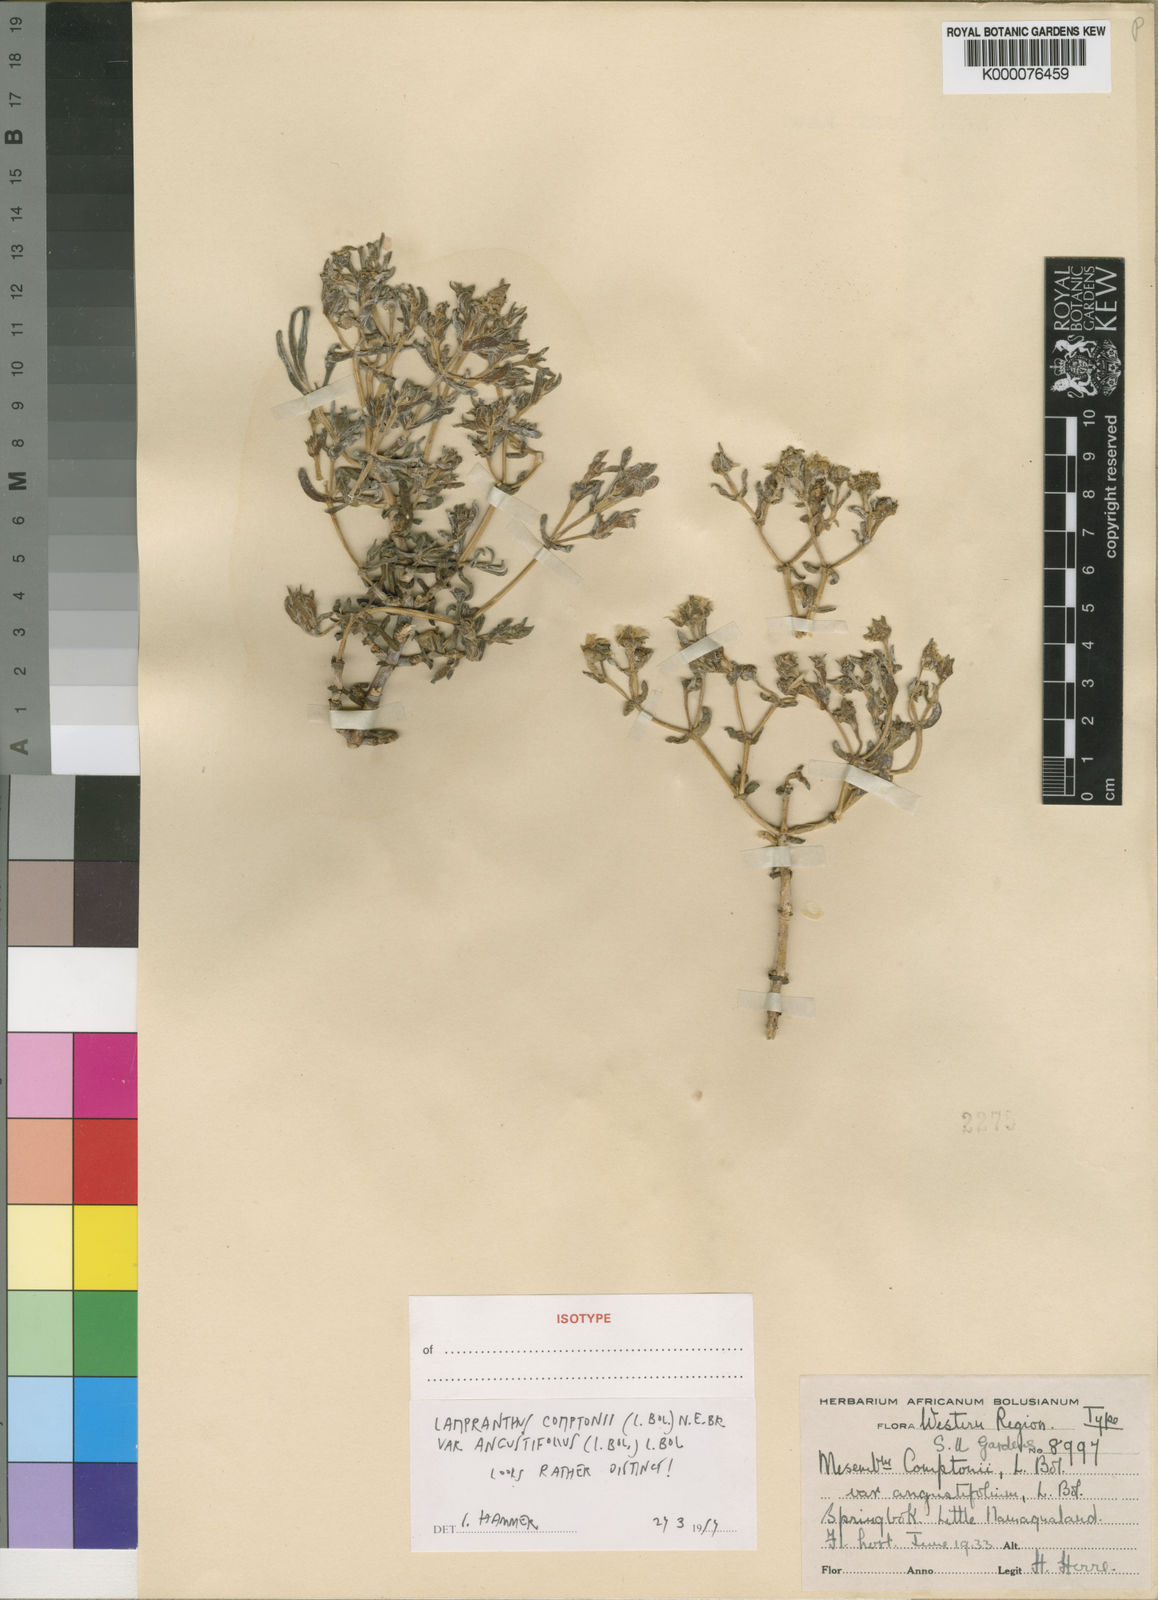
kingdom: Plantae
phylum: Tracheophyta
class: Magnoliopsida
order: Caryophyllales
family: Aizoaceae
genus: Oscularia
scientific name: Oscularia comptonii
